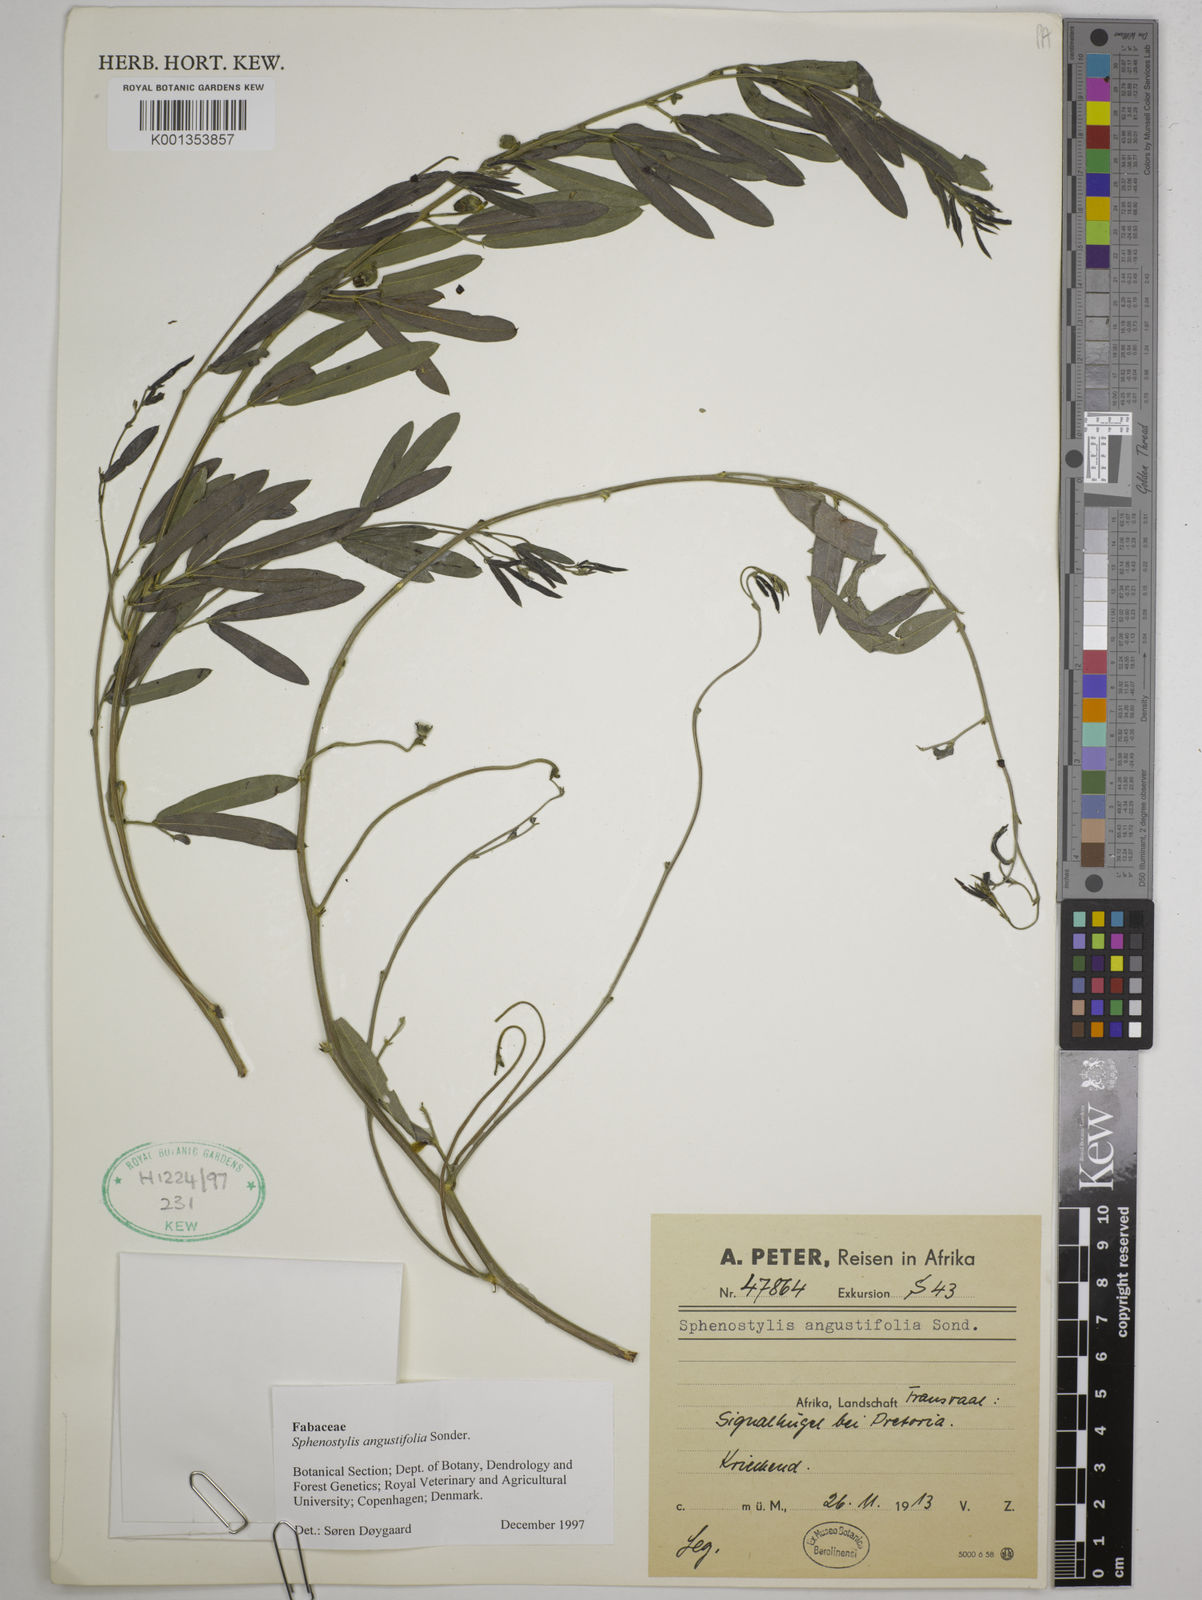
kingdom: Plantae
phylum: Tracheophyta
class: Magnoliopsida
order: Fabales
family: Fabaceae
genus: Sphenostylis
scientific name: Sphenostylis angustifolia
